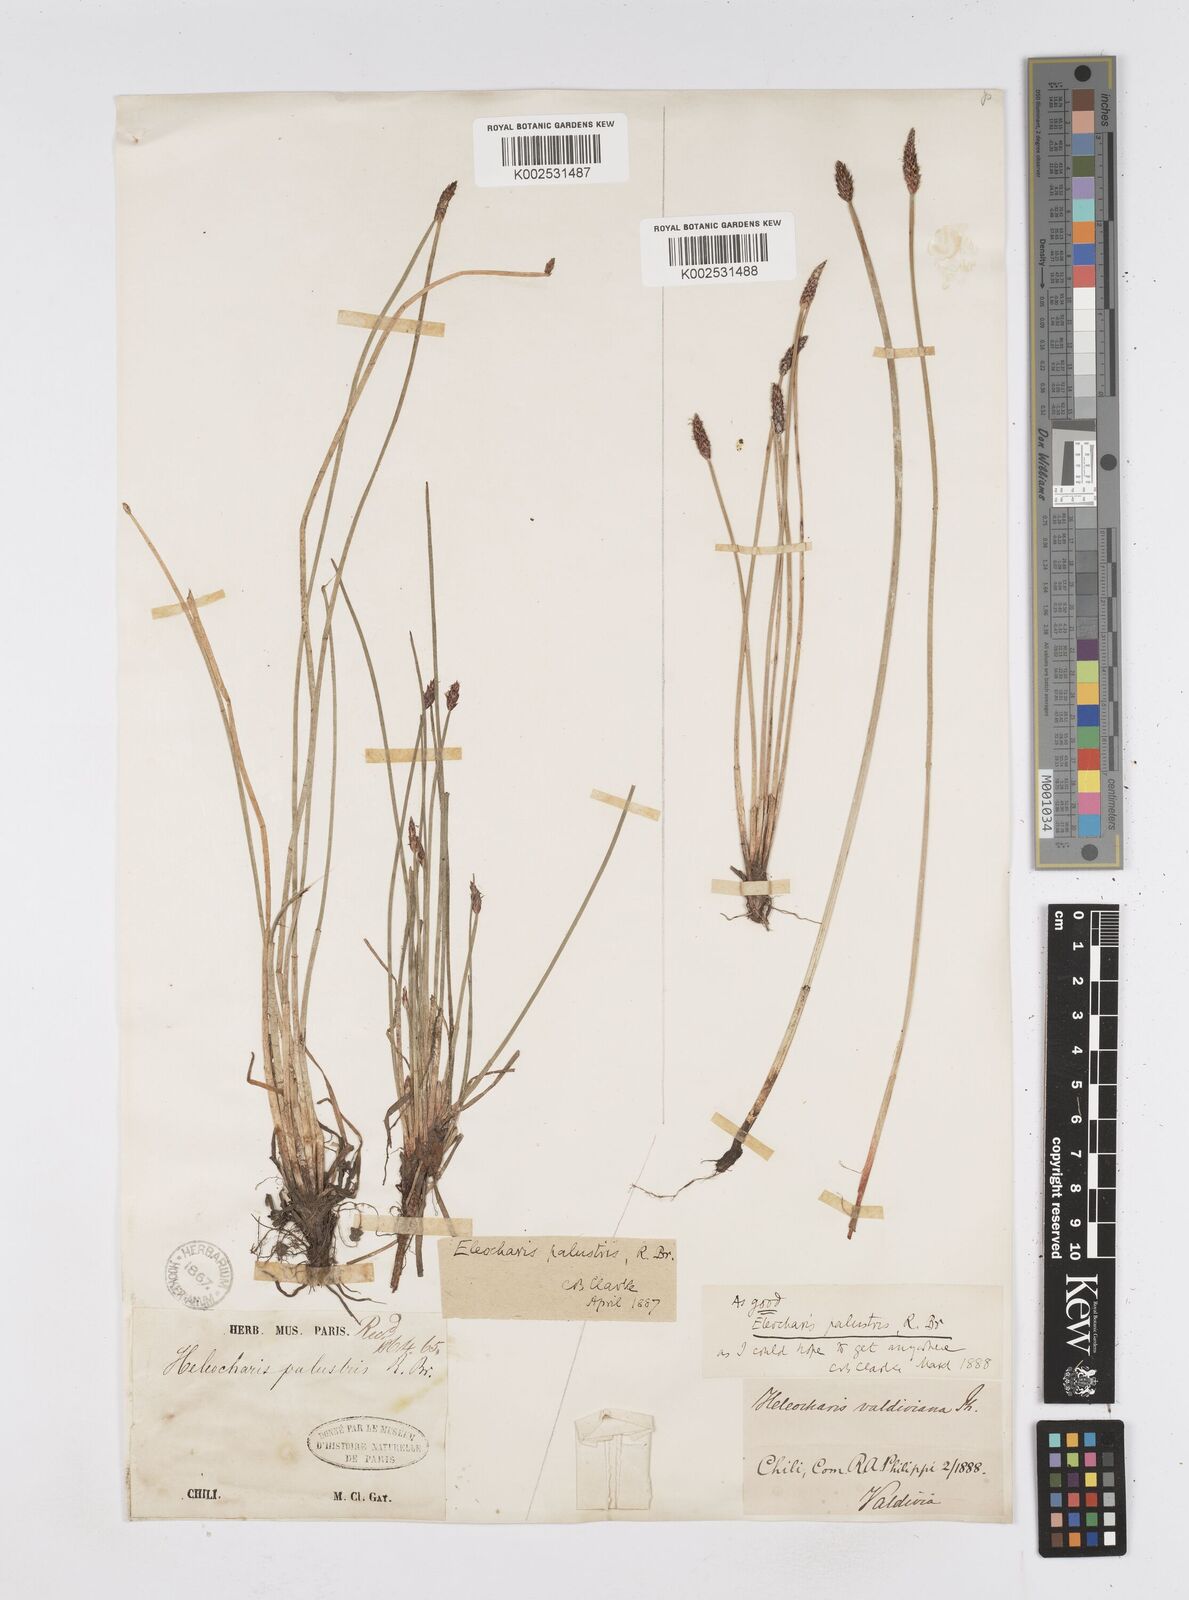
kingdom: Plantae
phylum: Tracheophyta
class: Liliopsida
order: Poales
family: Cyperaceae
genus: Eleocharis
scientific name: Eleocharis palustris
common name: Common spike-rush
